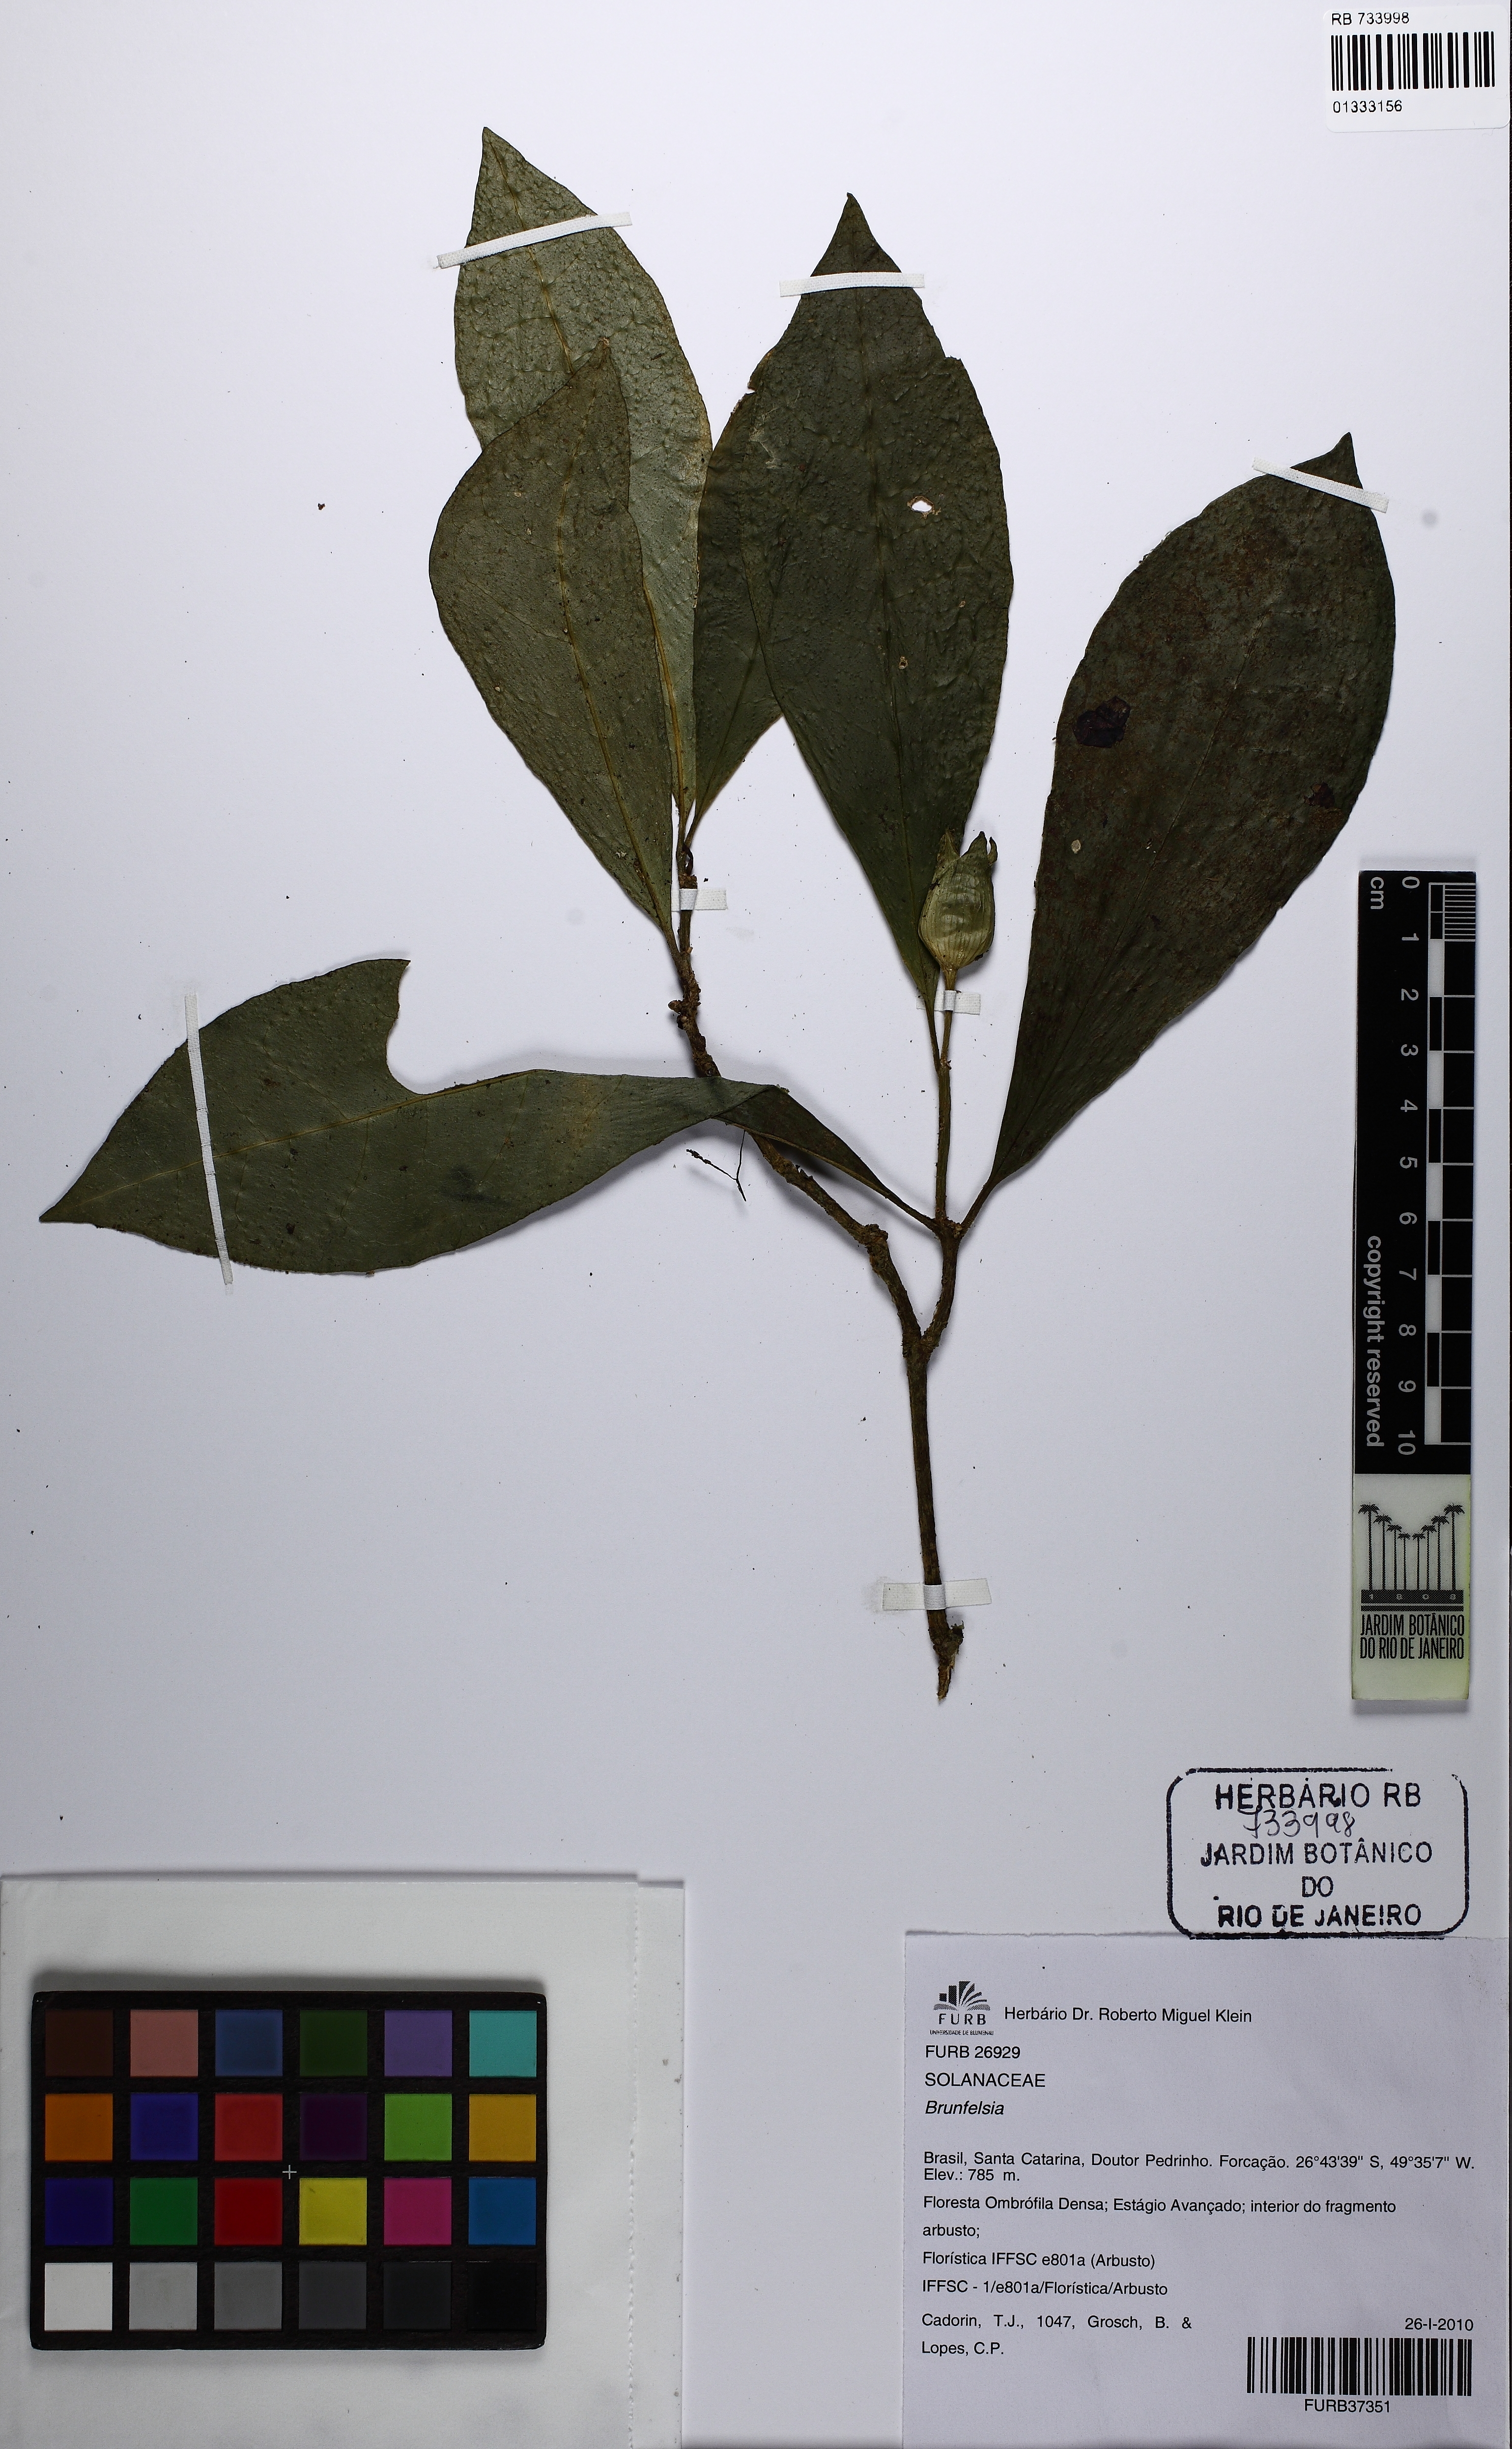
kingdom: Plantae
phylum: Tracheophyta
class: Magnoliopsida
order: Solanales
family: Solanaceae
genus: Brunfelsia
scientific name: Brunfelsia
